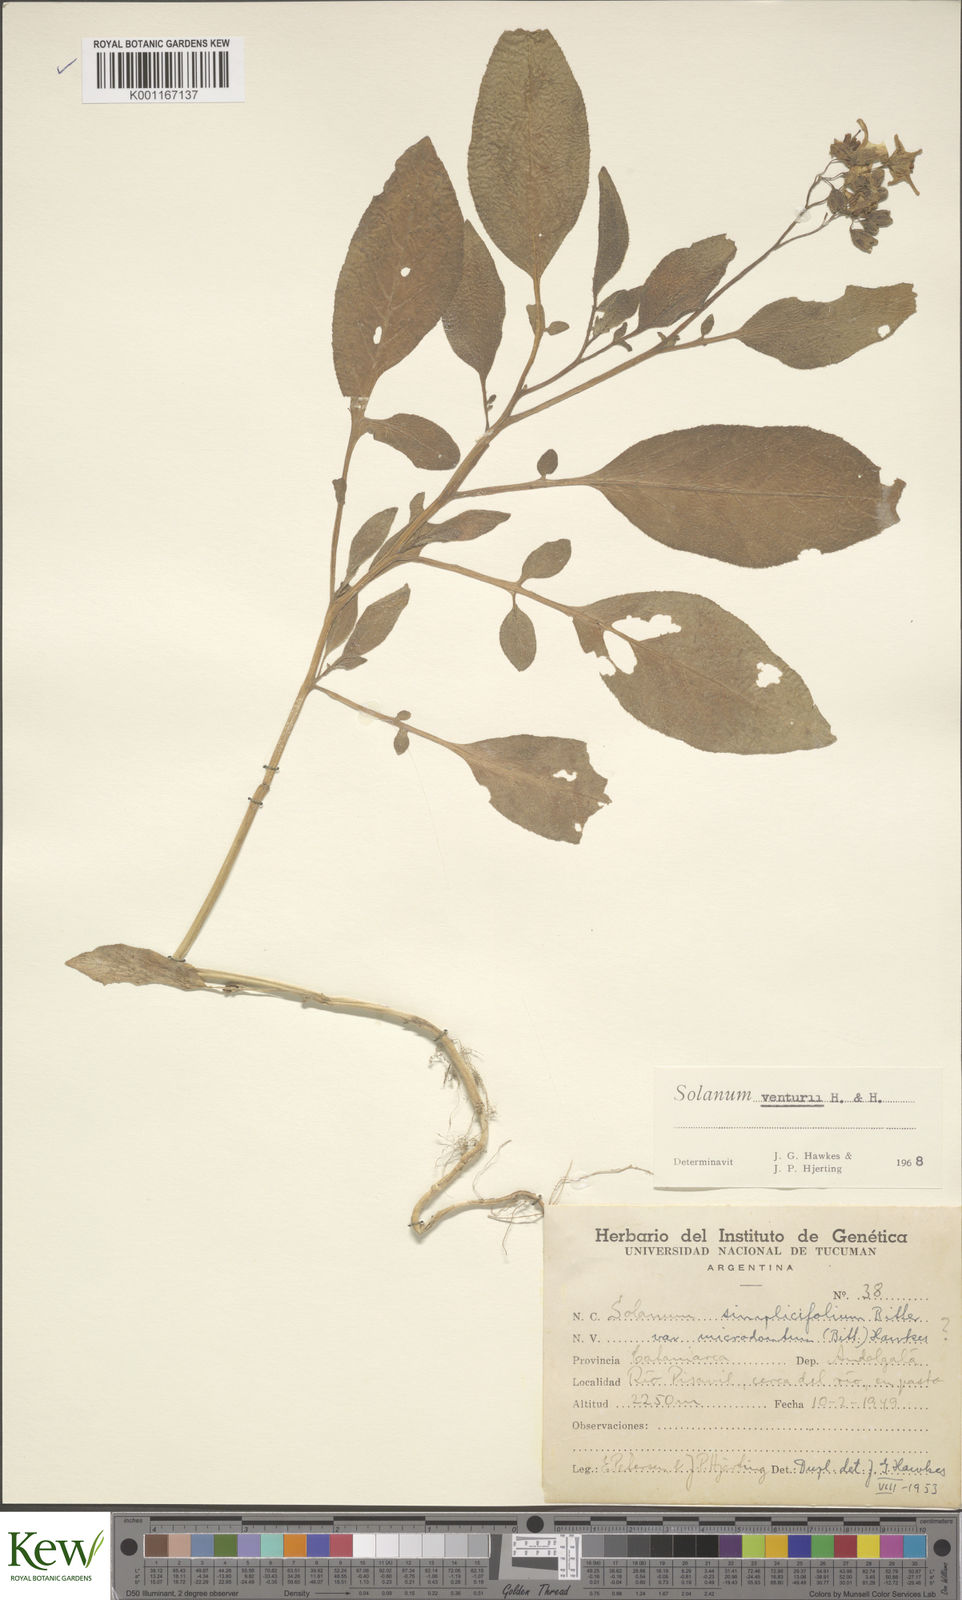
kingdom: Plantae
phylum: Tracheophyta
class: Magnoliopsida
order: Solanales
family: Solanaceae
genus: Solanum
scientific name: Solanum venturii
